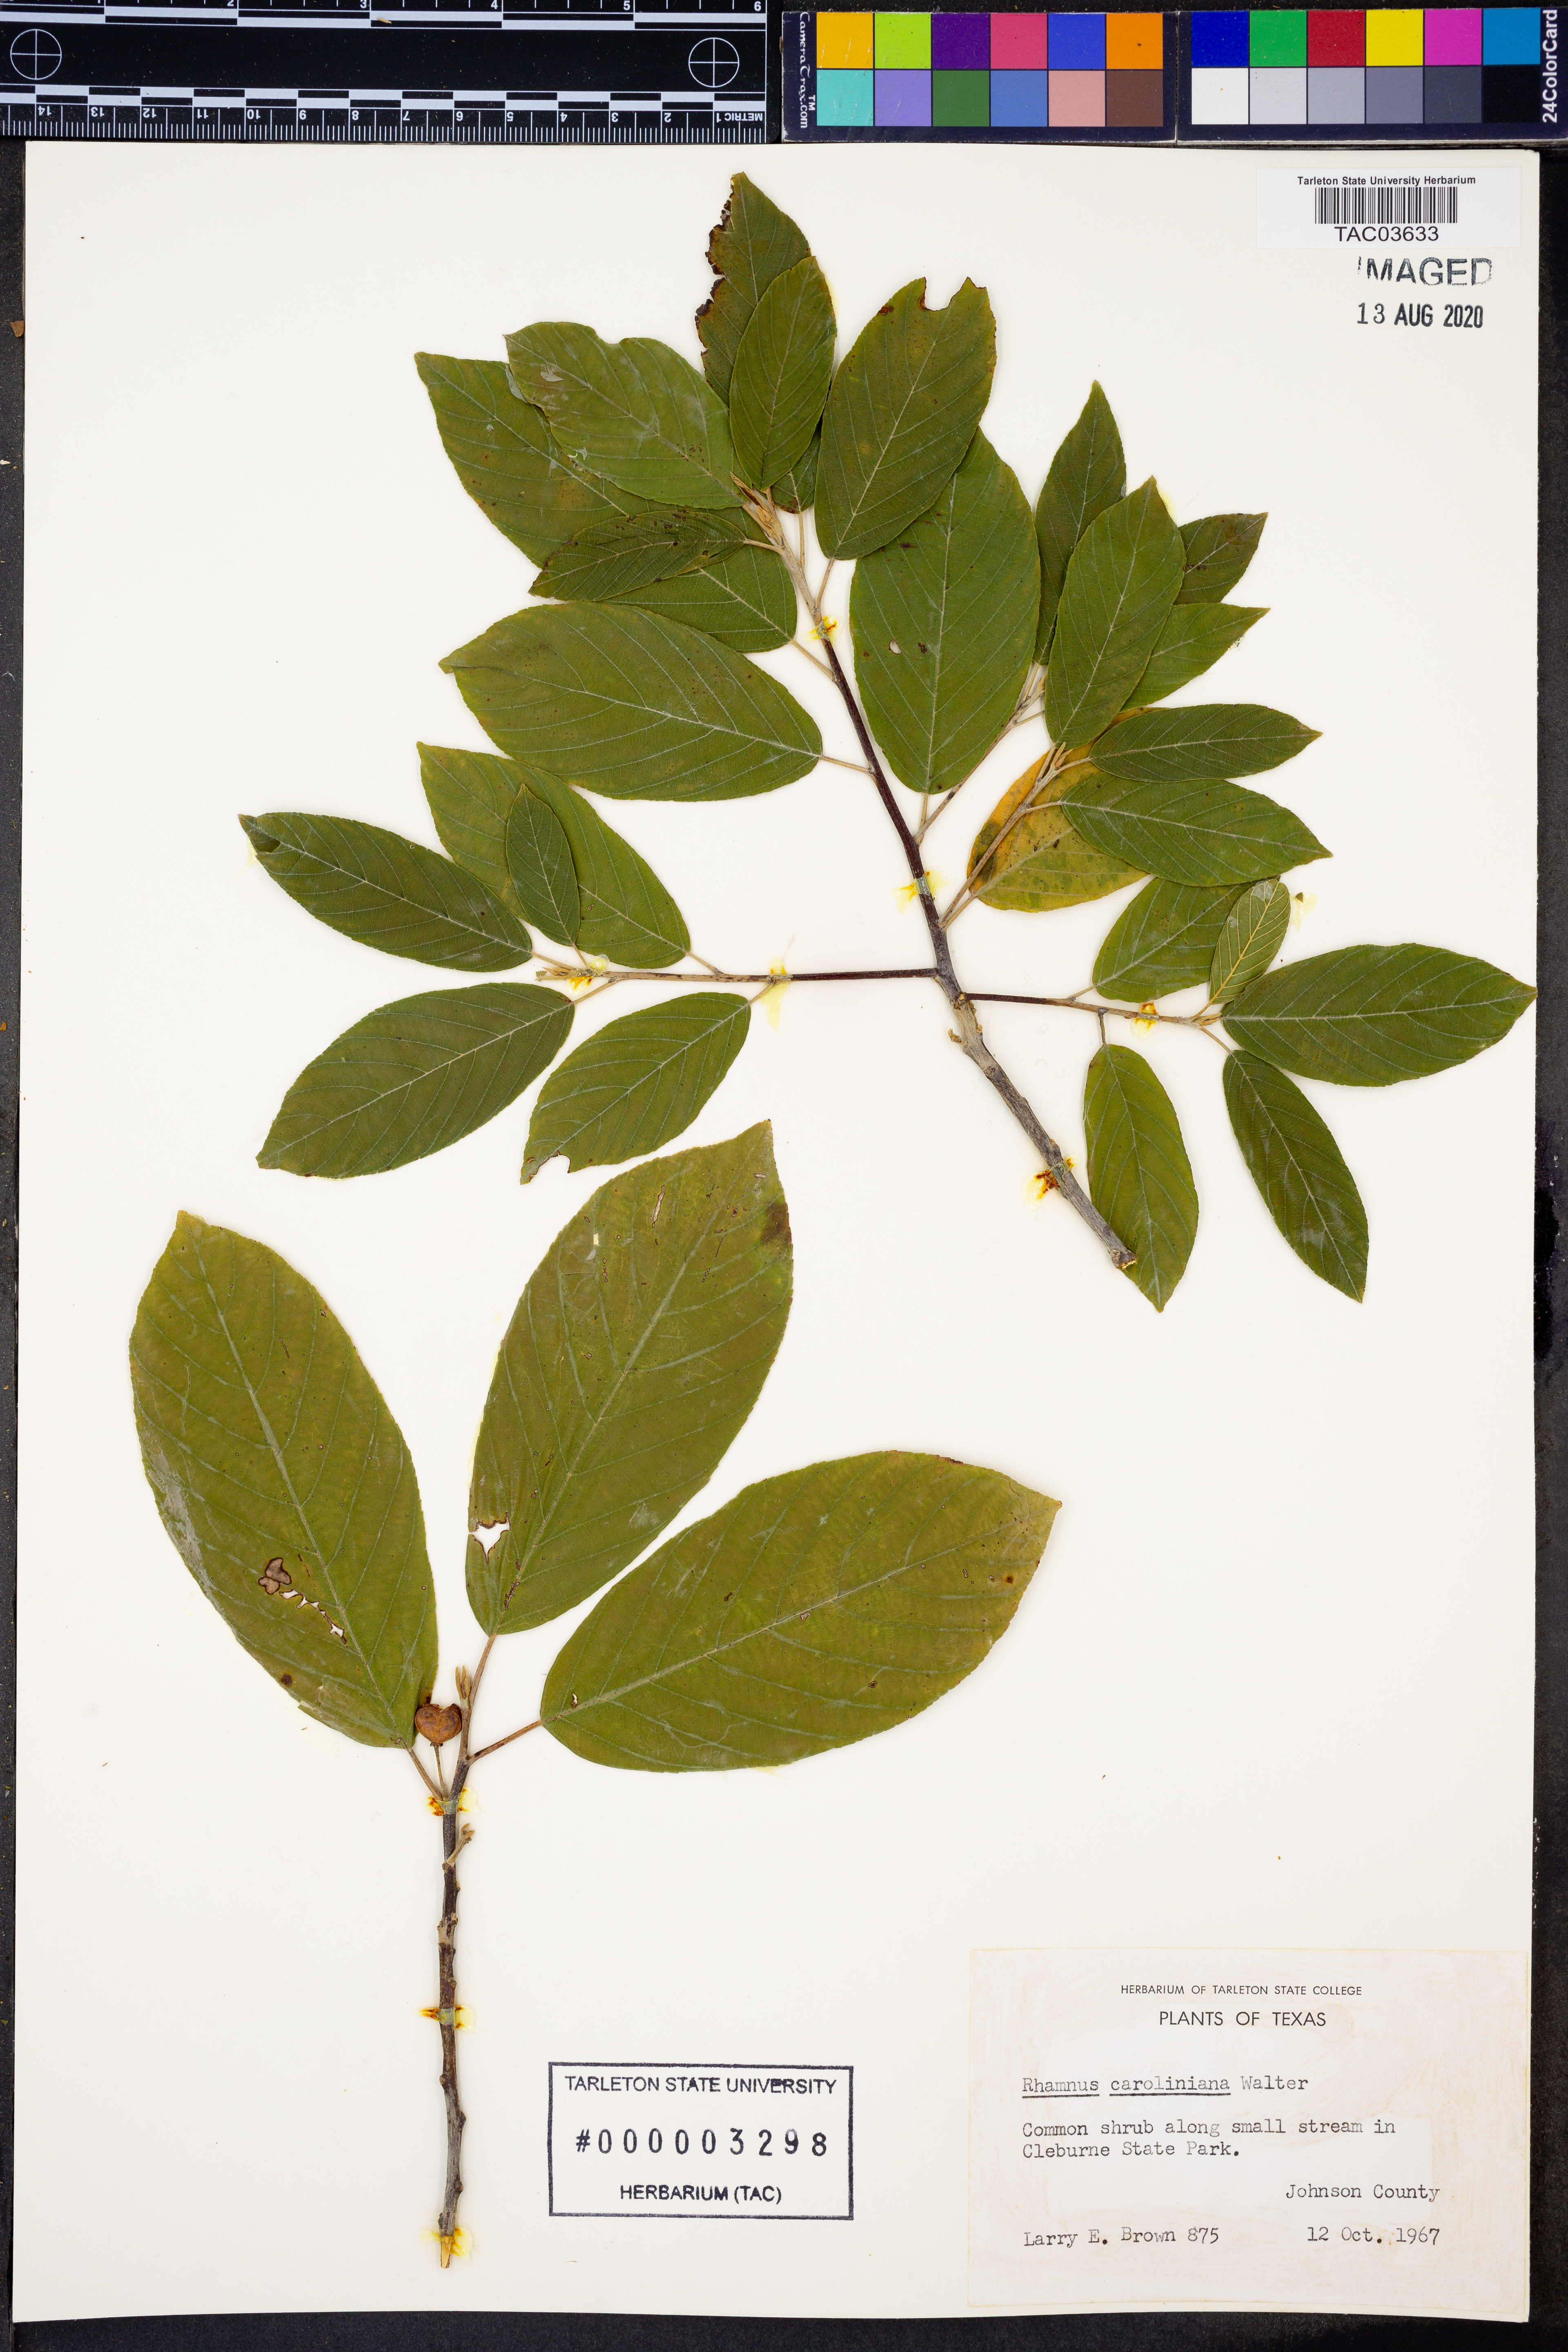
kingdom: Plantae
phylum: Tracheophyta
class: Magnoliopsida
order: Rosales
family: Rhamnaceae
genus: Frangula
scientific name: Frangula caroliniana
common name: Carolina buckthorn
